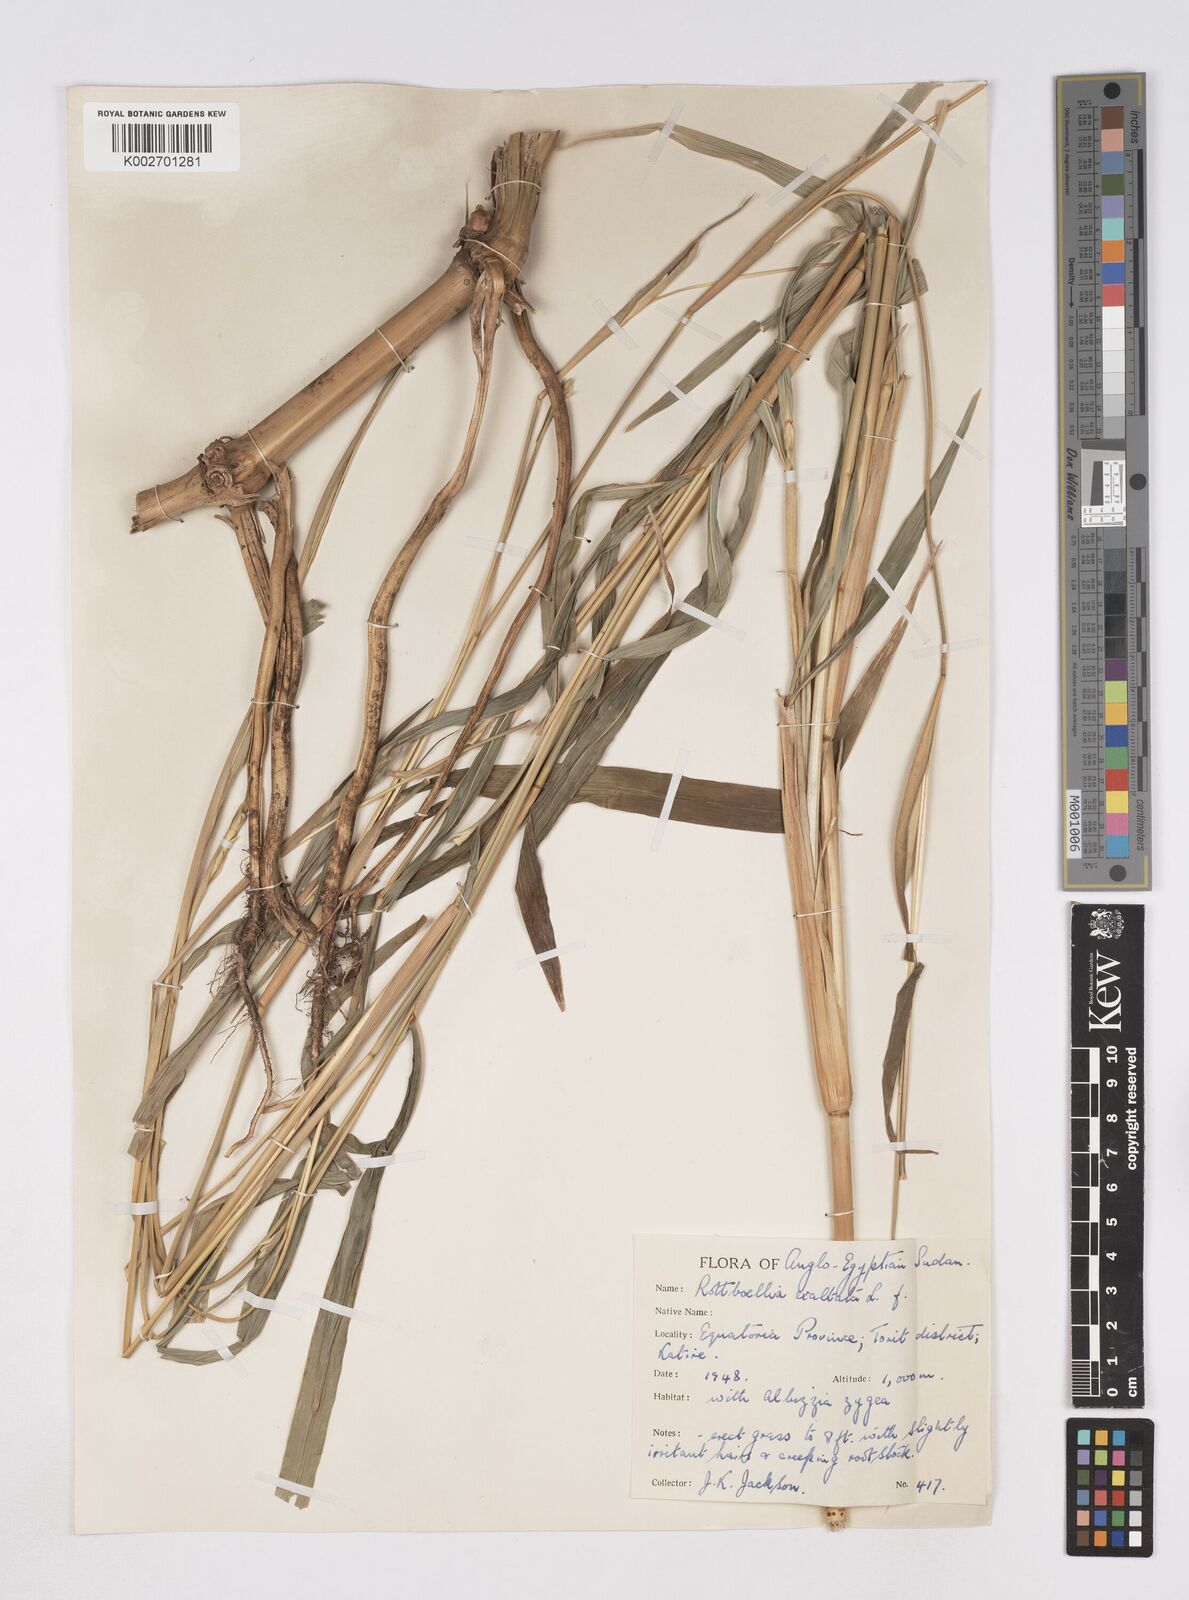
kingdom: Plantae
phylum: Tracheophyta
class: Liliopsida
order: Poales
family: Poaceae
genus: Rottboellia
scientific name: Rottboellia cochinchinensis
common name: Itchgrass
